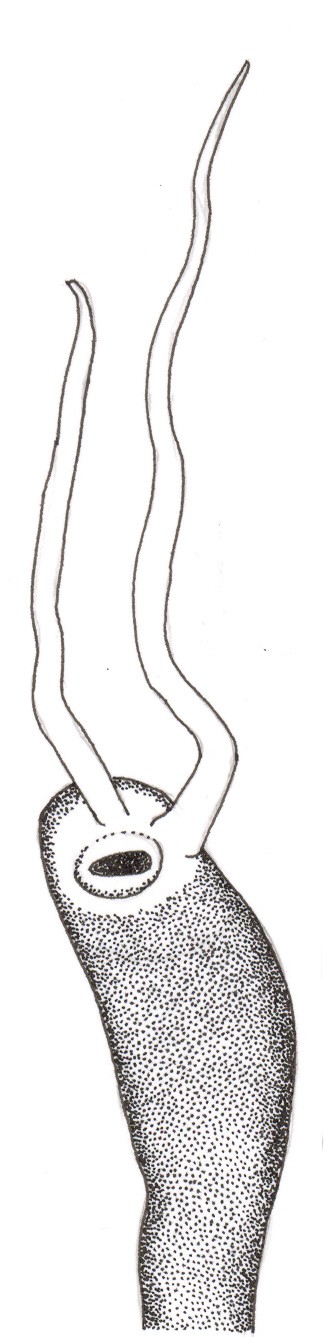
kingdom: Animalia
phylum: Chordata
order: Lophiiformes
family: Ceratiidae
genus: Ceratias
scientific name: Ceratias tentaculatus
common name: Southern seadevil
